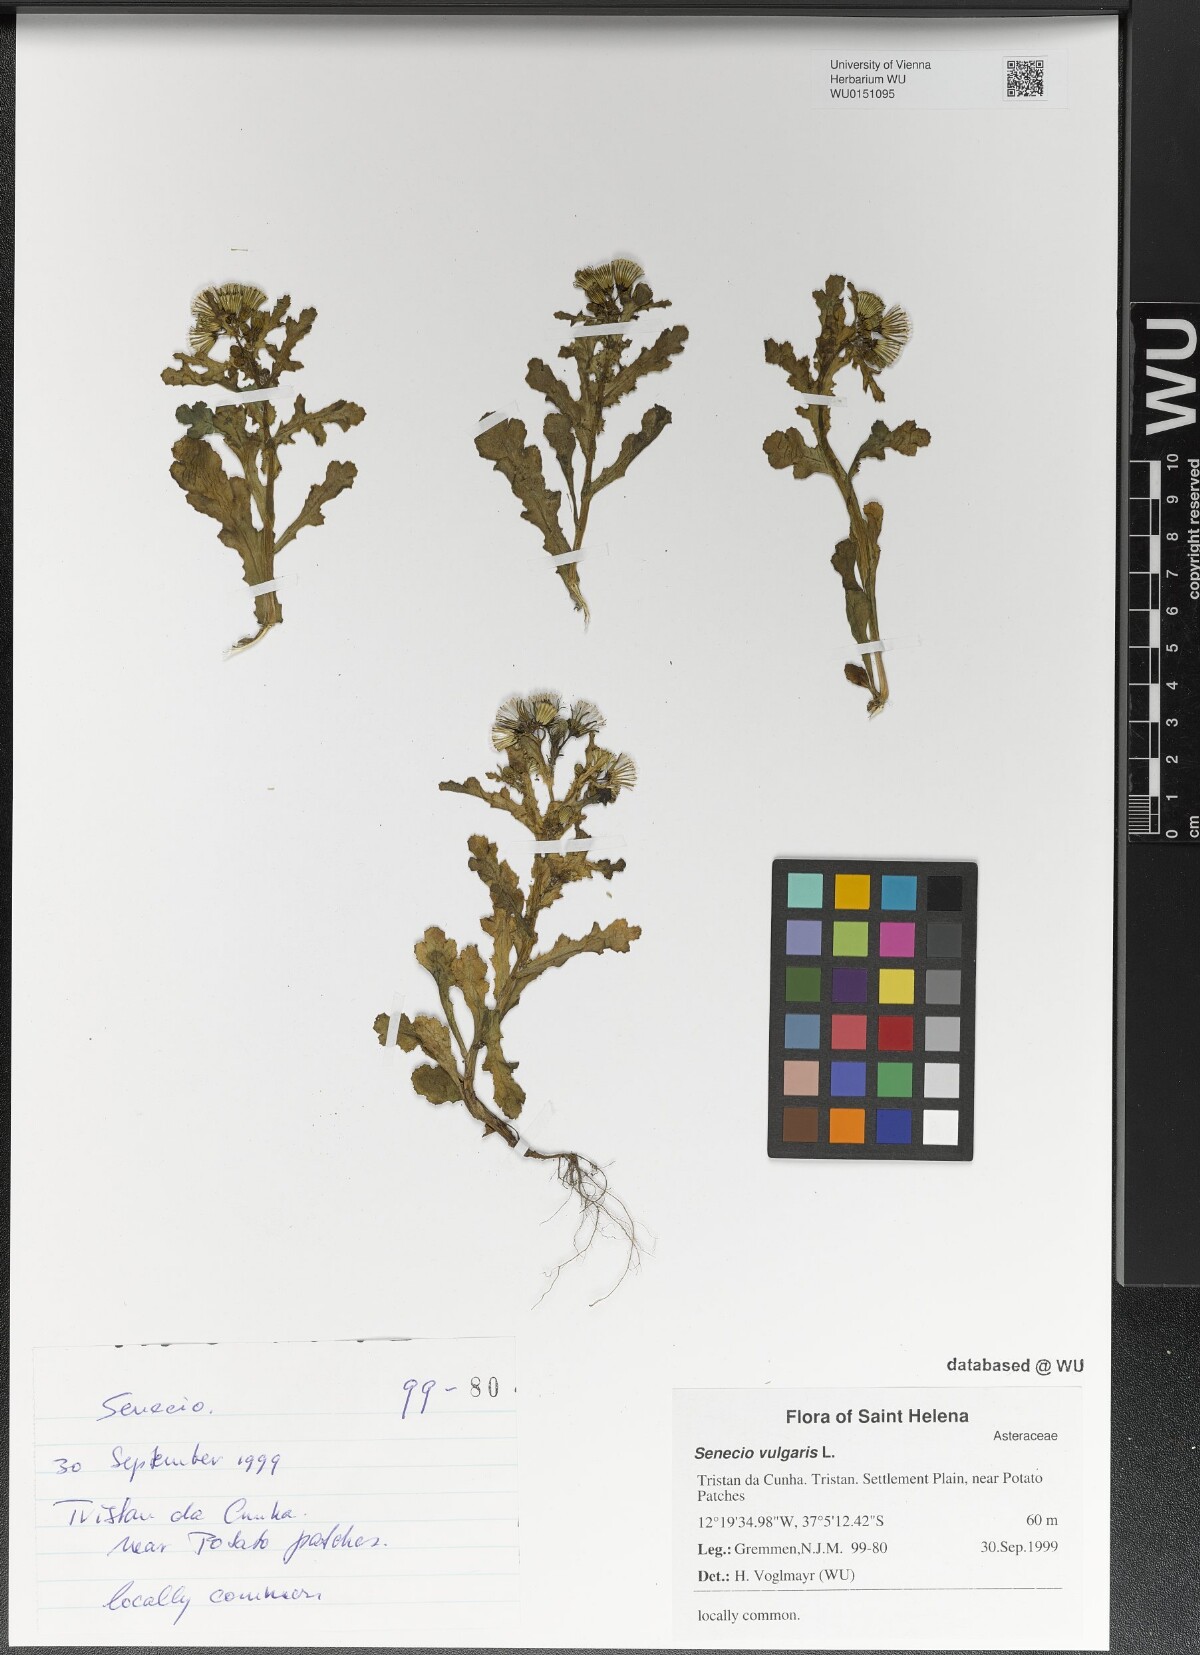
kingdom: Plantae
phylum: Tracheophyta
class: Magnoliopsida
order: Asterales
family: Asteraceae
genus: Senecio
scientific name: Senecio vulgaris
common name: Old-man-in-the-spring
